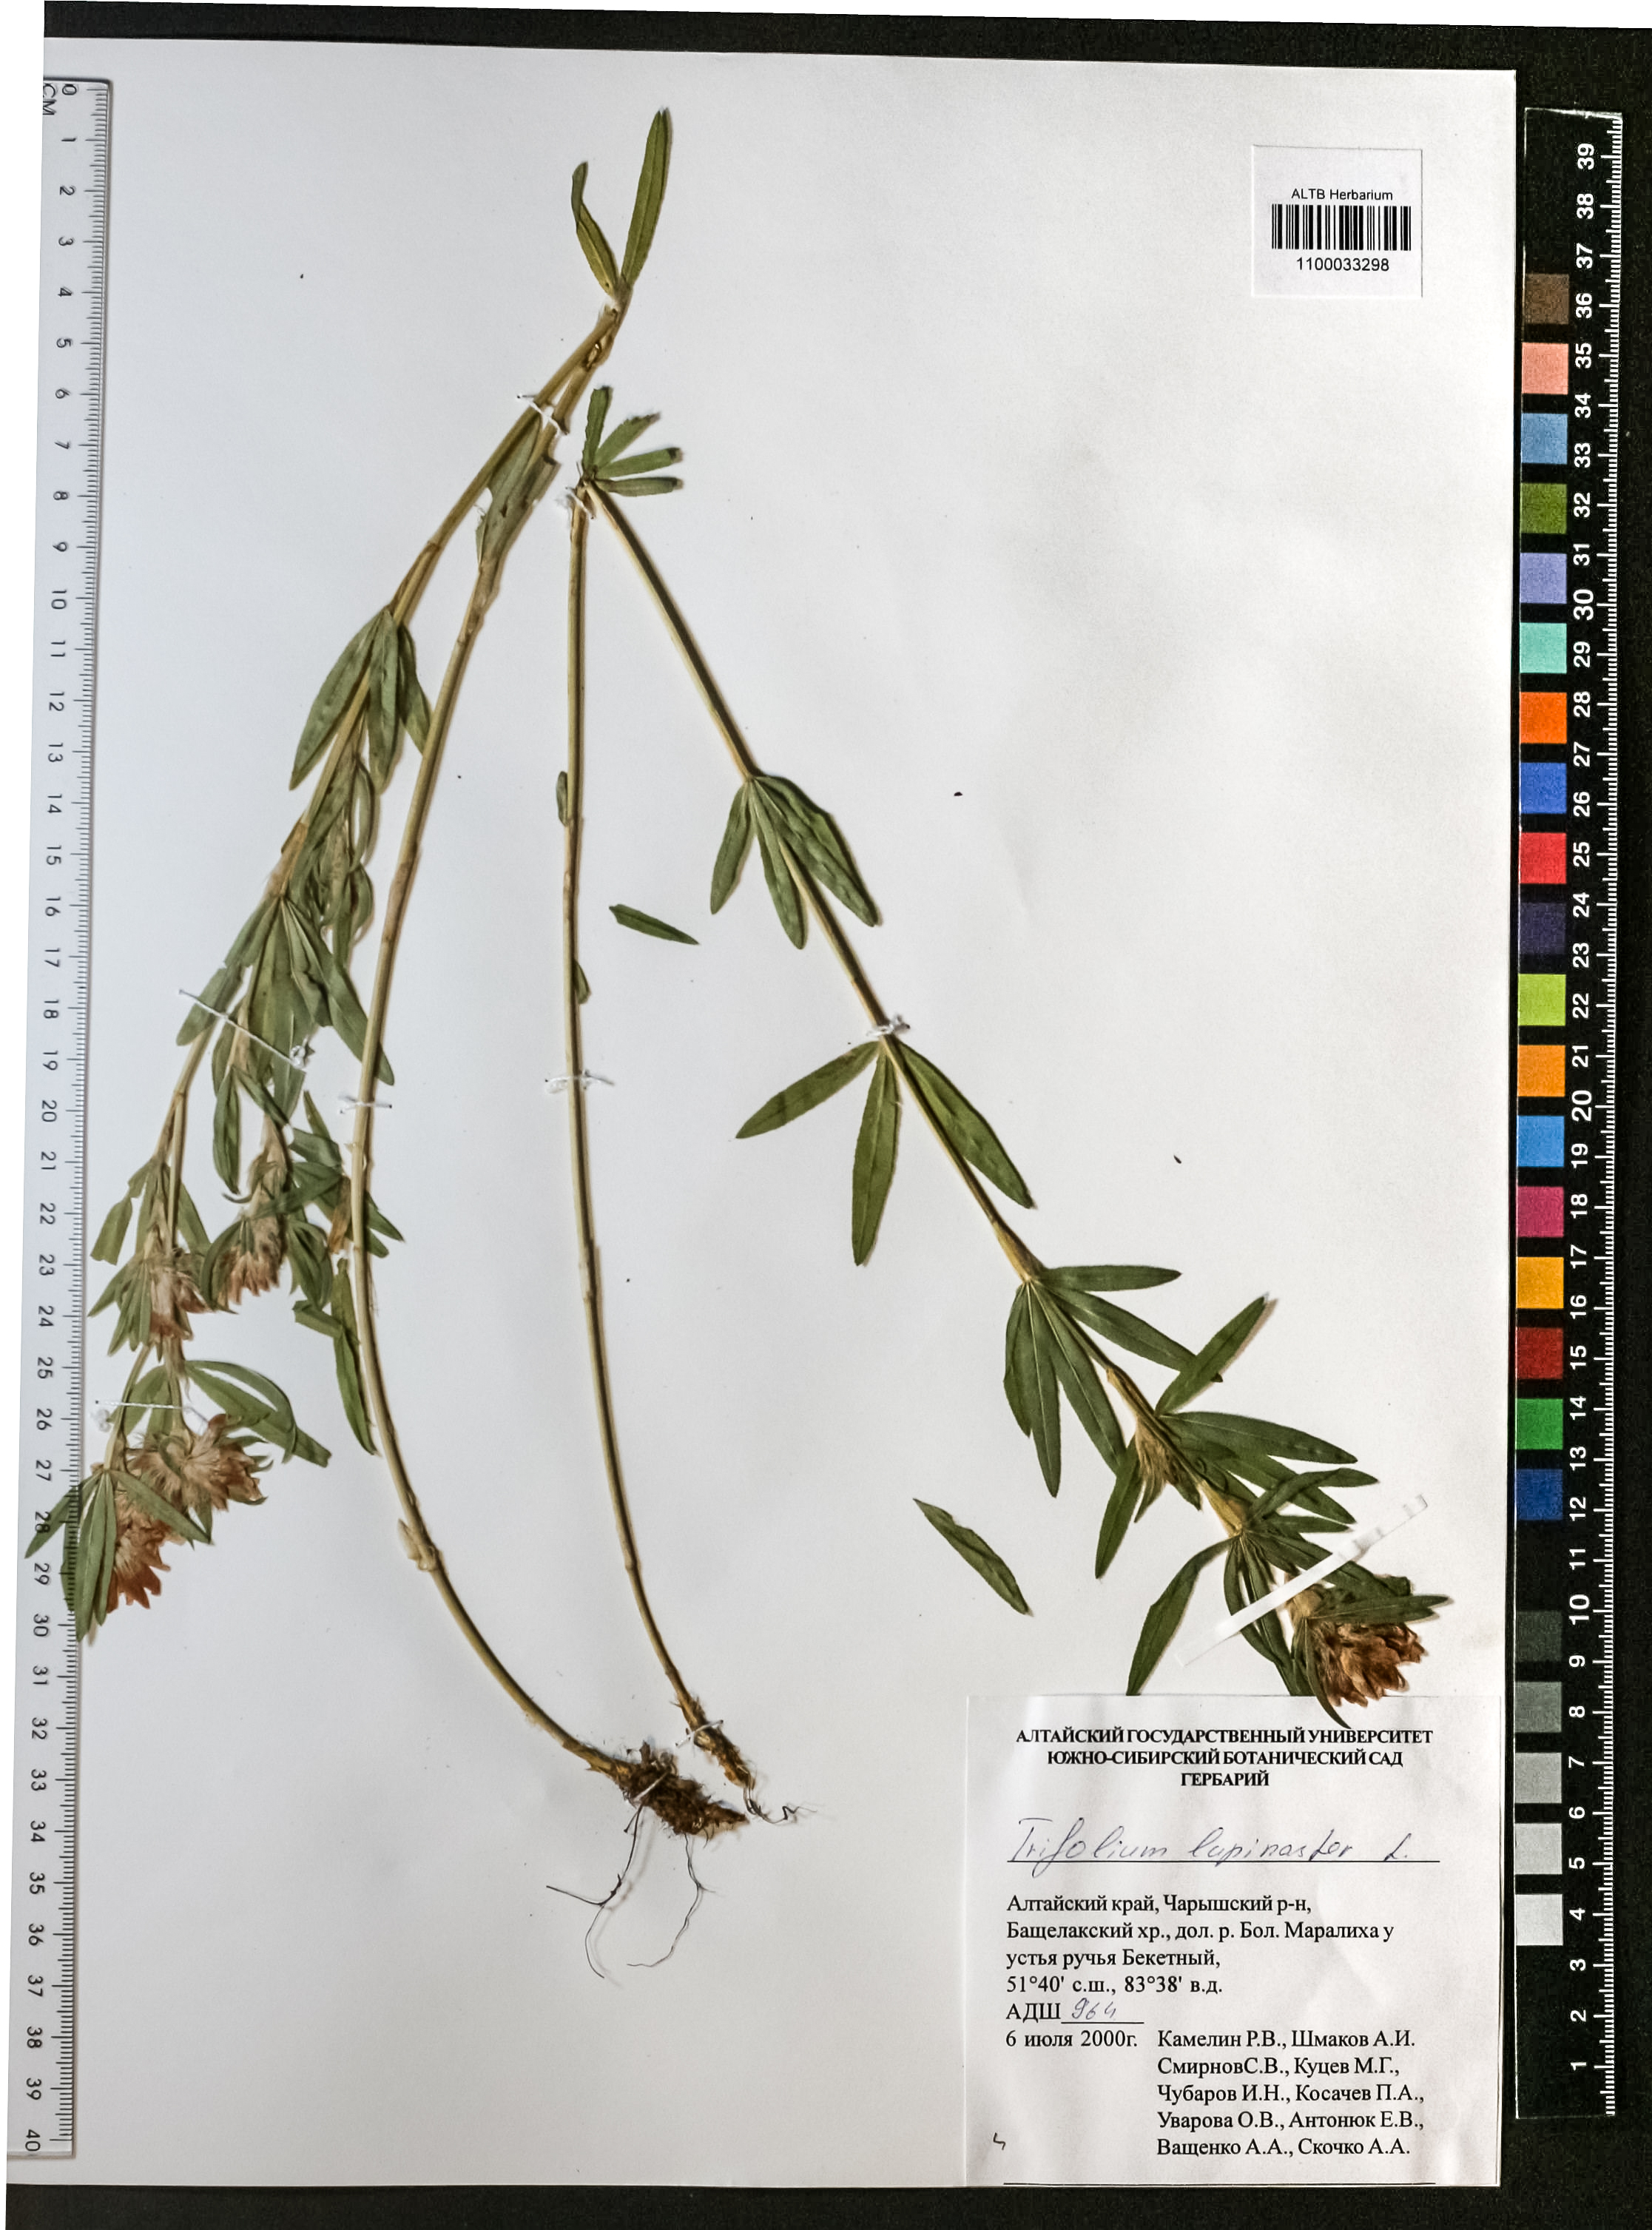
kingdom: Plantae
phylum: Tracheophyta
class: Magnoliopsida
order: Fabales
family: Fabaceae
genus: Trifolium
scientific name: Trifolium lupinaster
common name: Lupine clover
